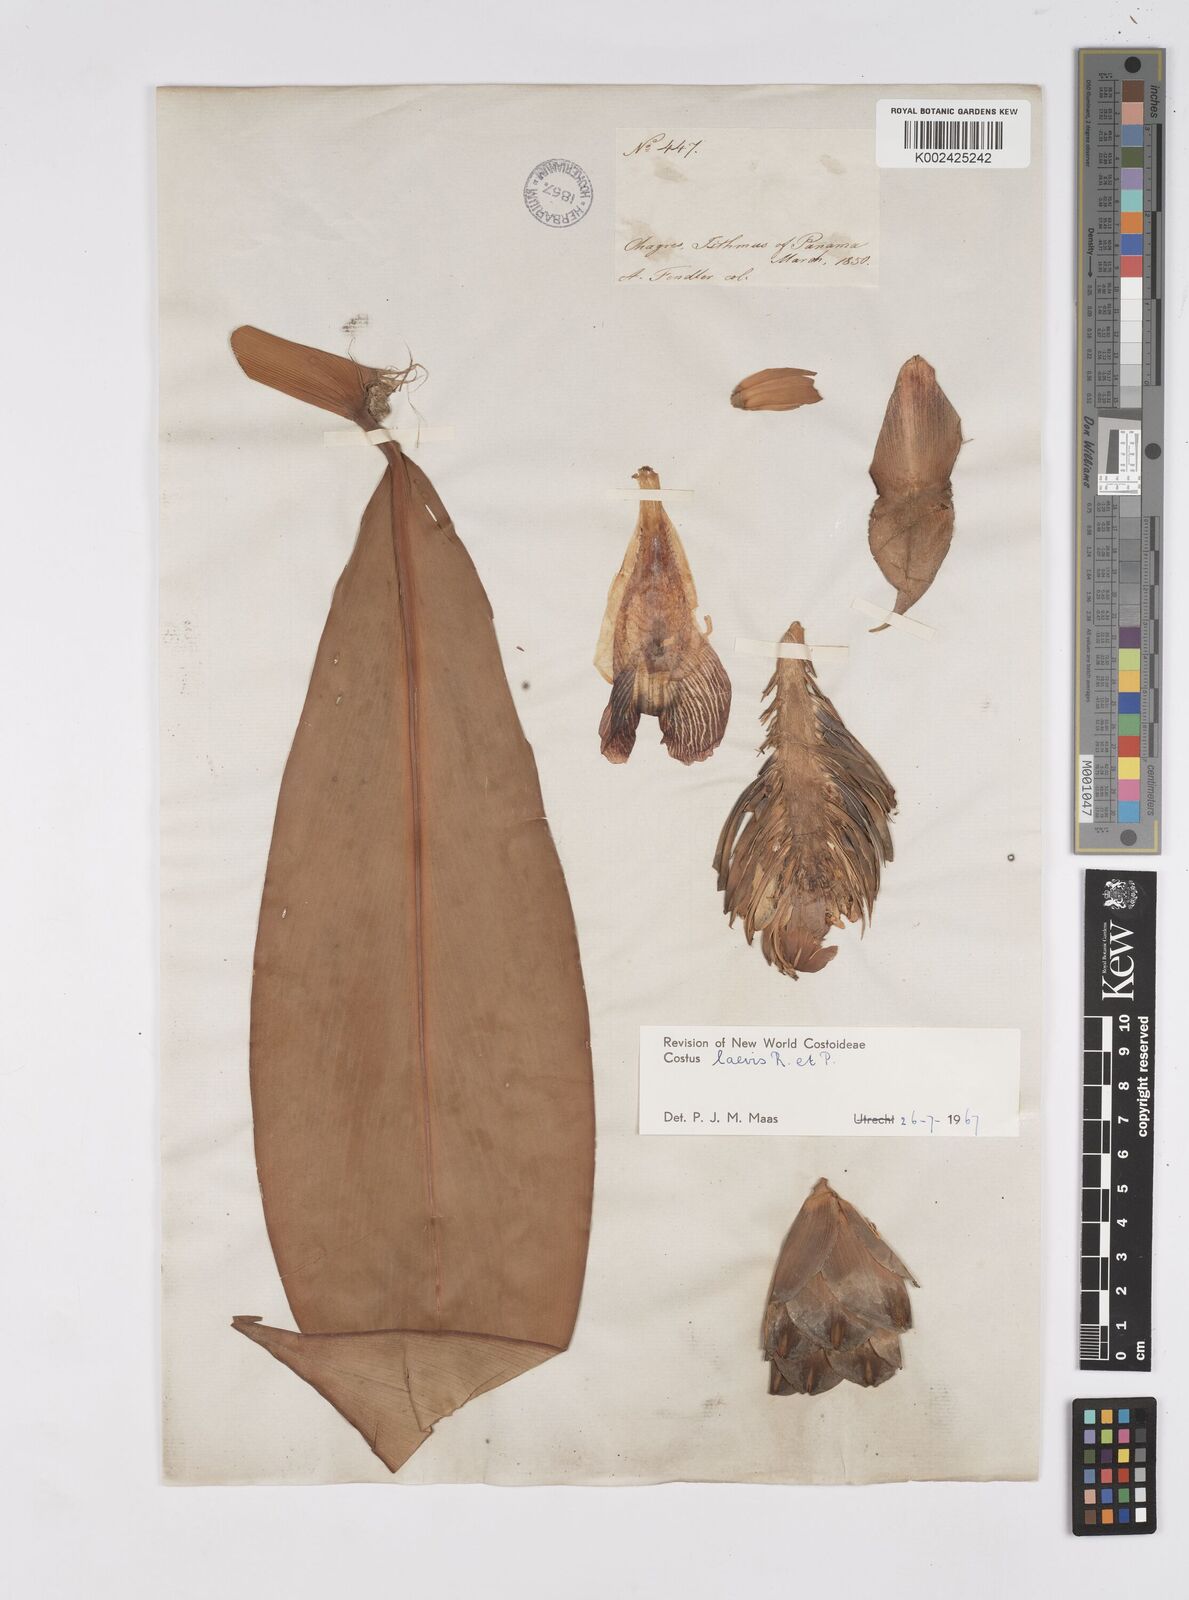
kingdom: Plantae
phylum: Tracheophyta
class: Liliopsida
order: Zingiberales
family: Costaceae
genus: Costus
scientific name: Costus laevis
